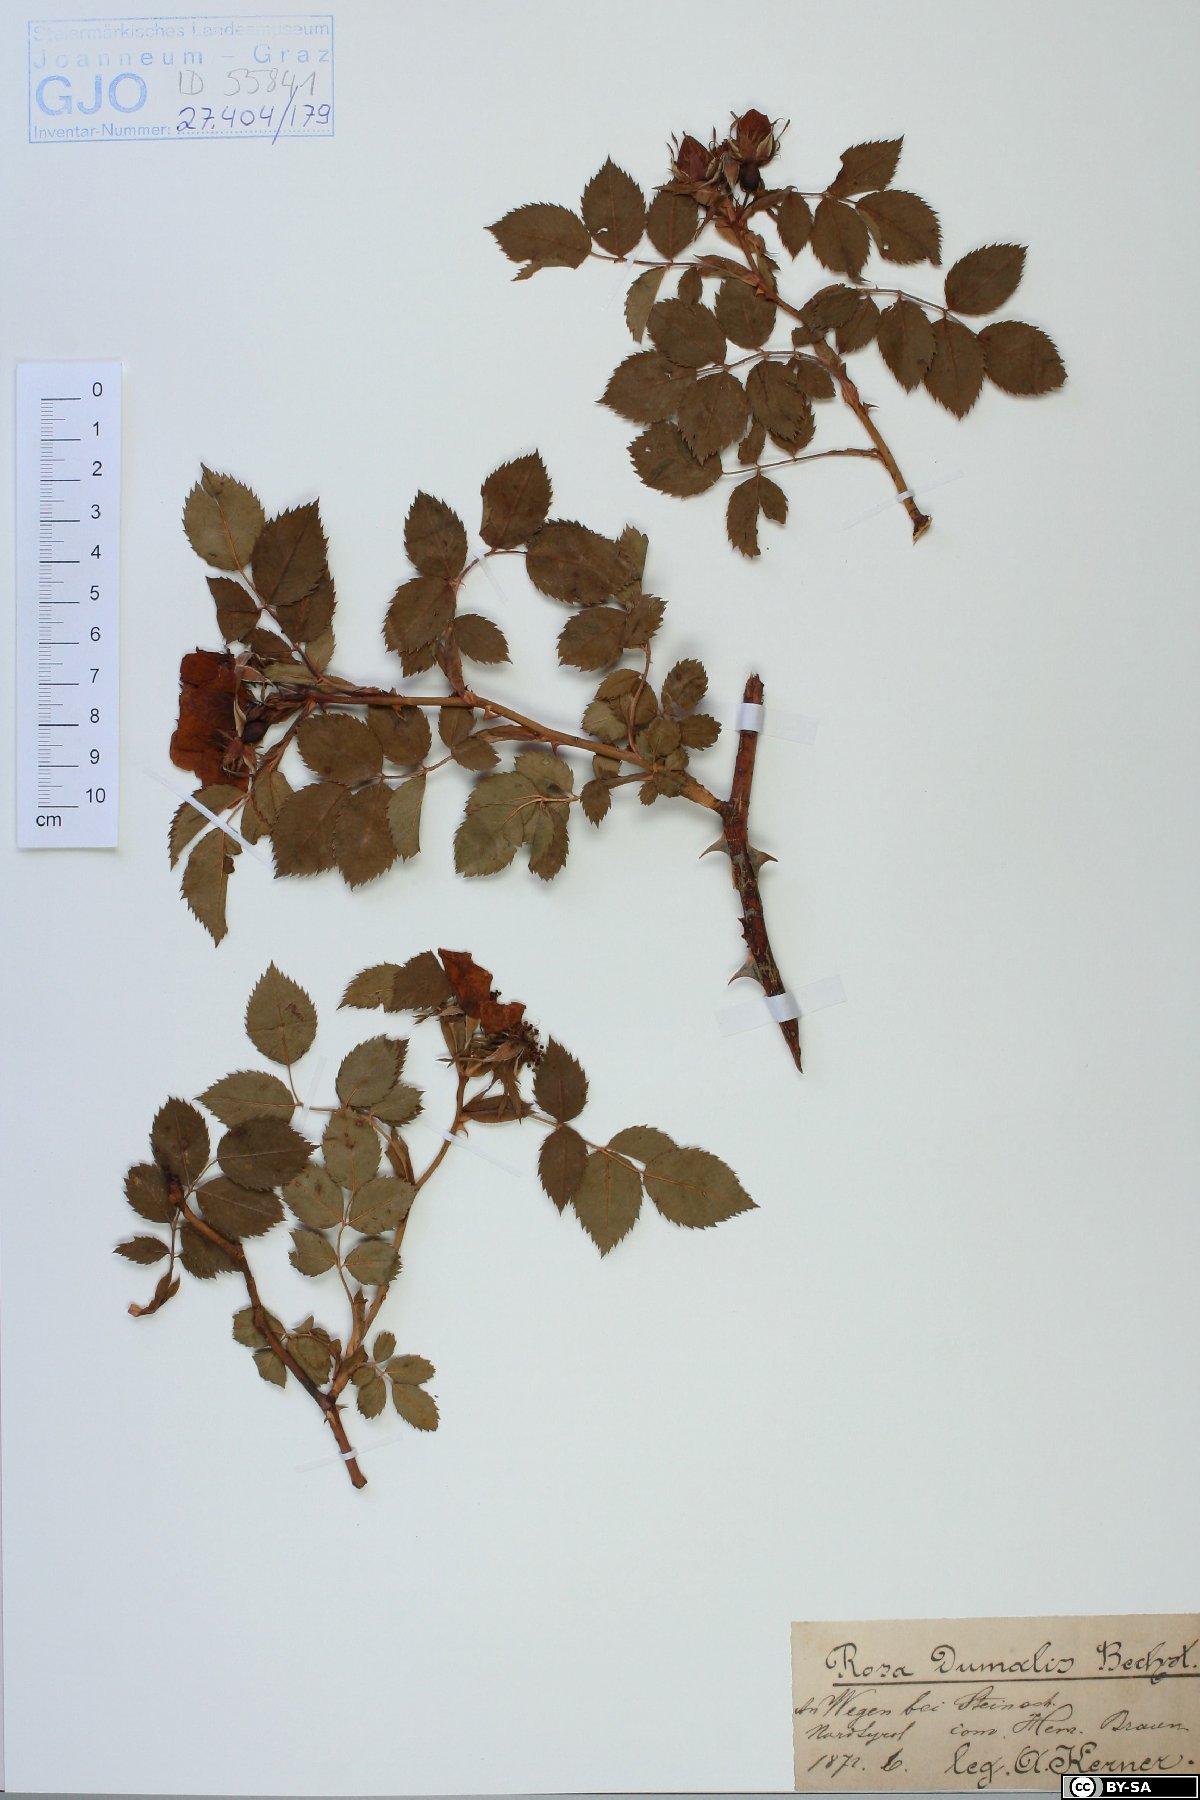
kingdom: Plantae
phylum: Tracheophyta
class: Magnoliopsida
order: Rosales
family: Rosaceae
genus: Rosa
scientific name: Rosa dumalis
